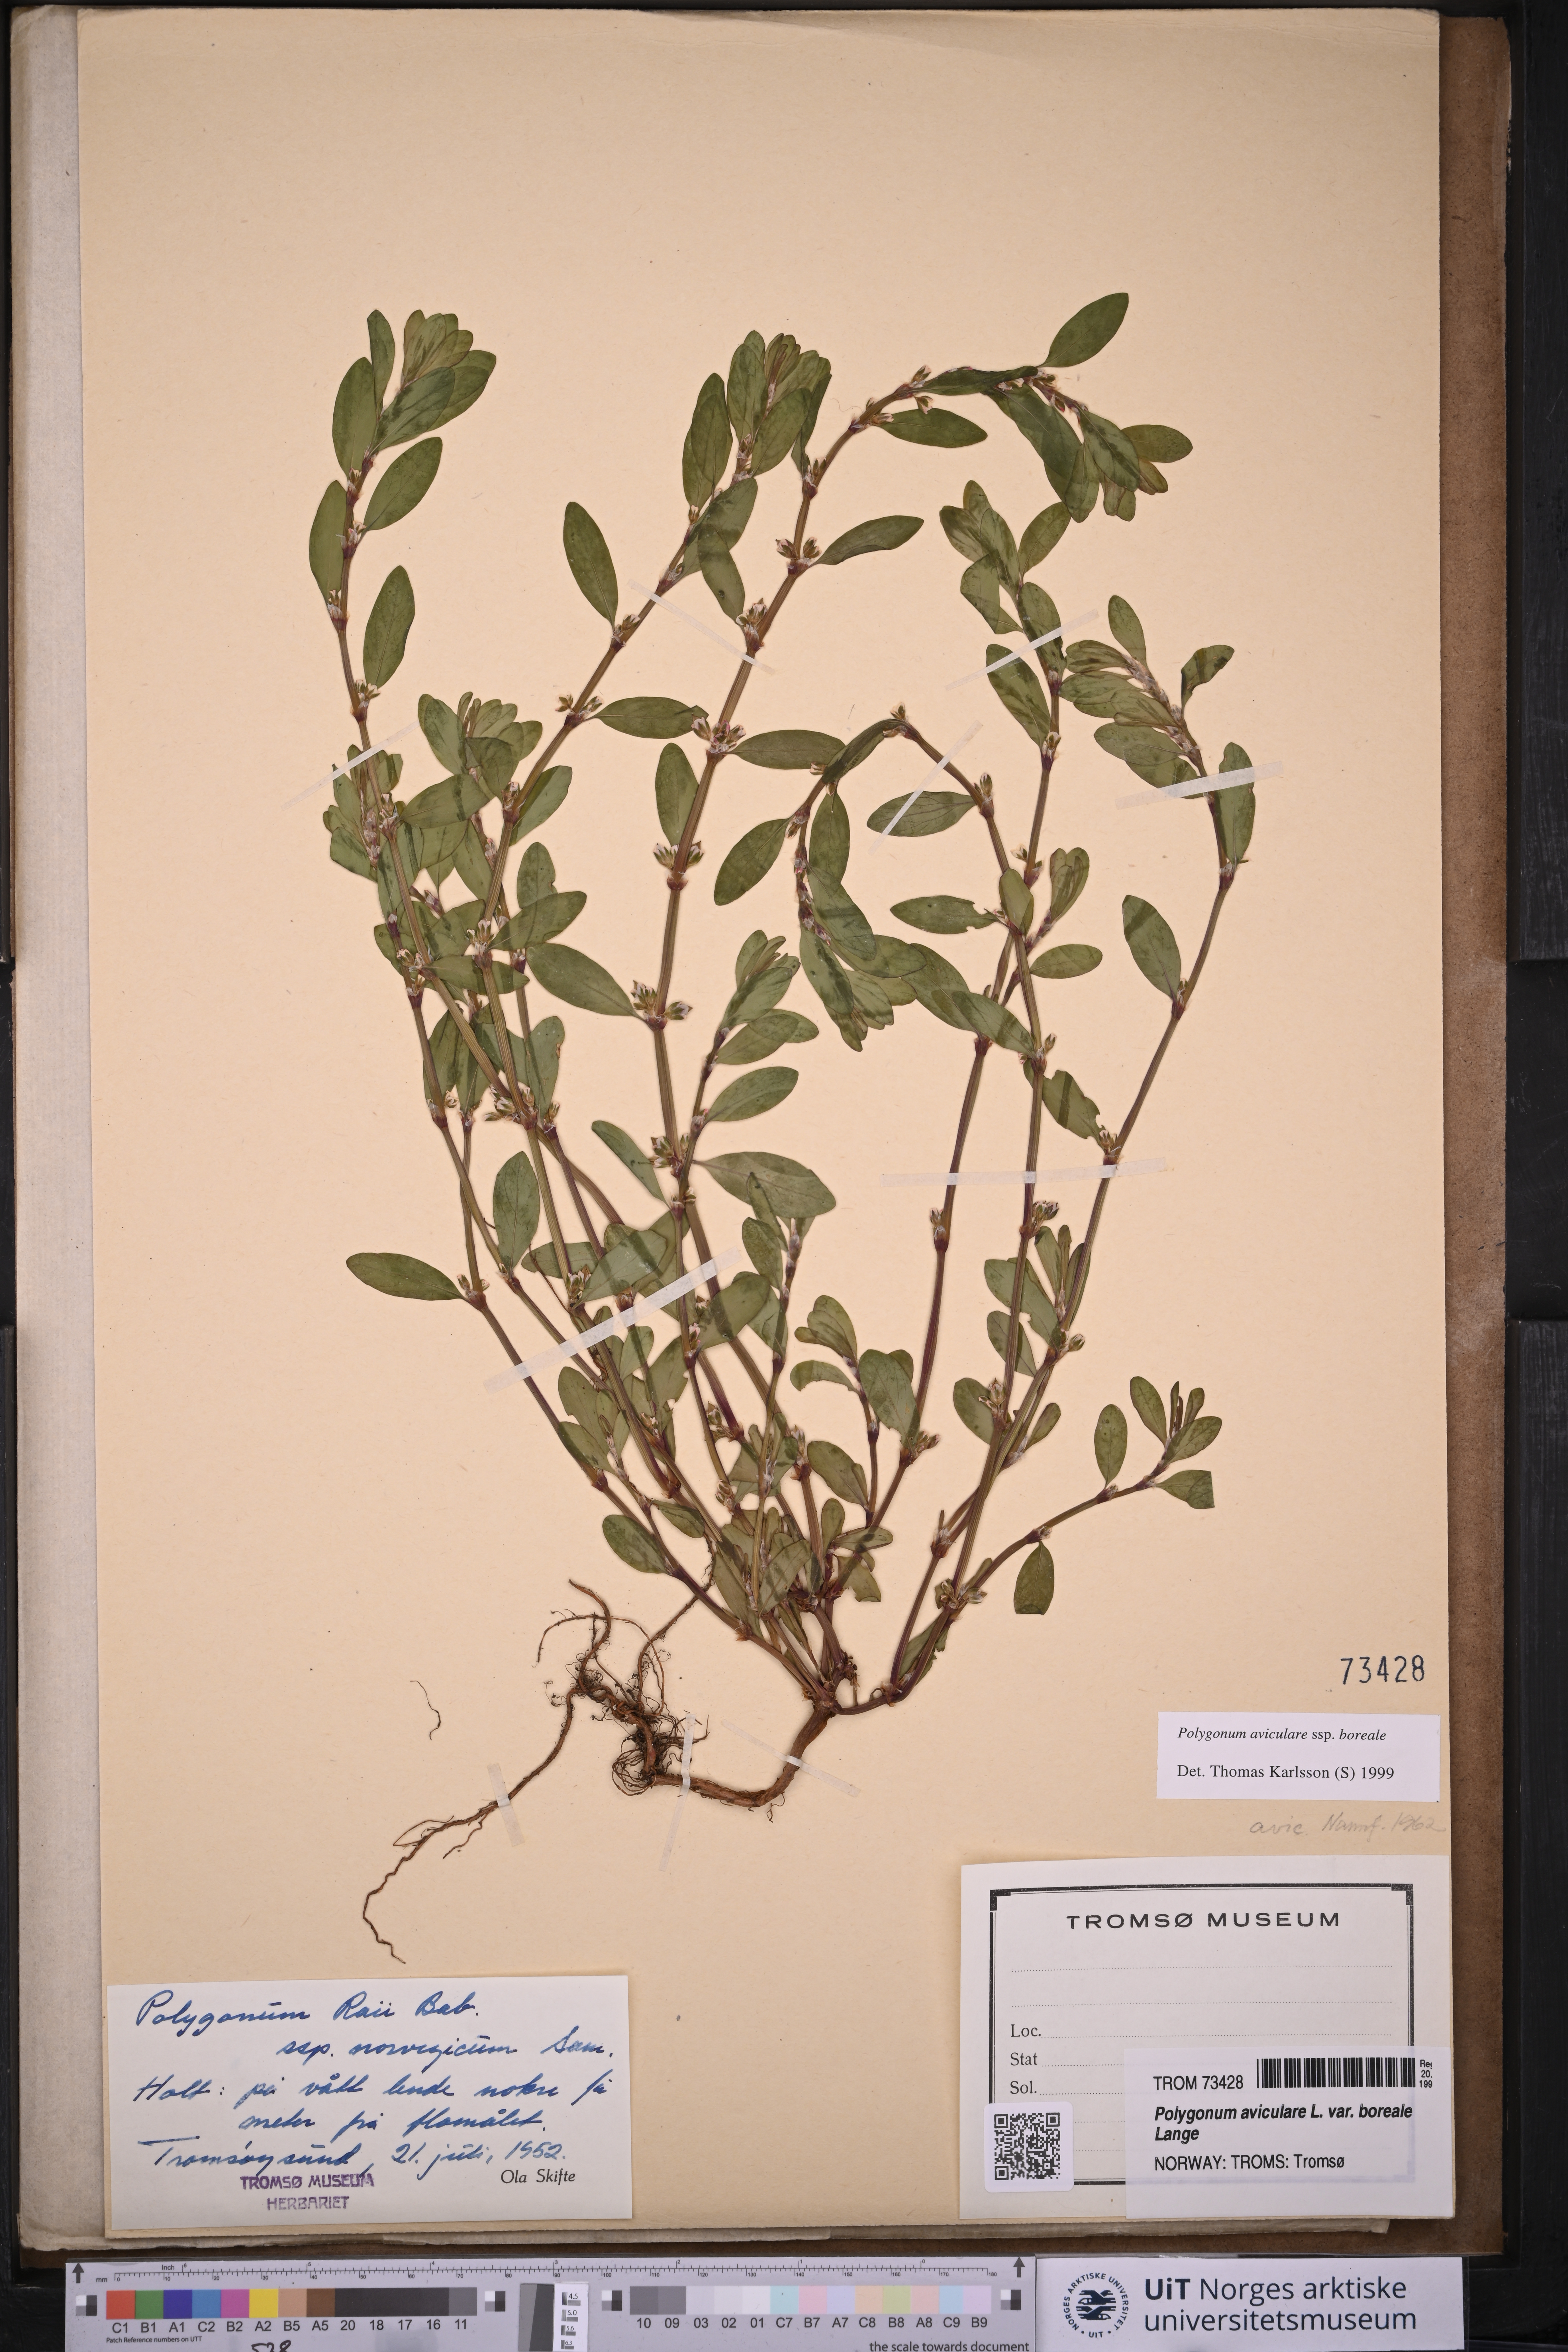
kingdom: Plantae
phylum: Tracheophyta
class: Magnoliopsida
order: Caryophyllales
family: Polygonaceae
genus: Polygonum
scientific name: Polygonum boreale
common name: Northern knotgrass
